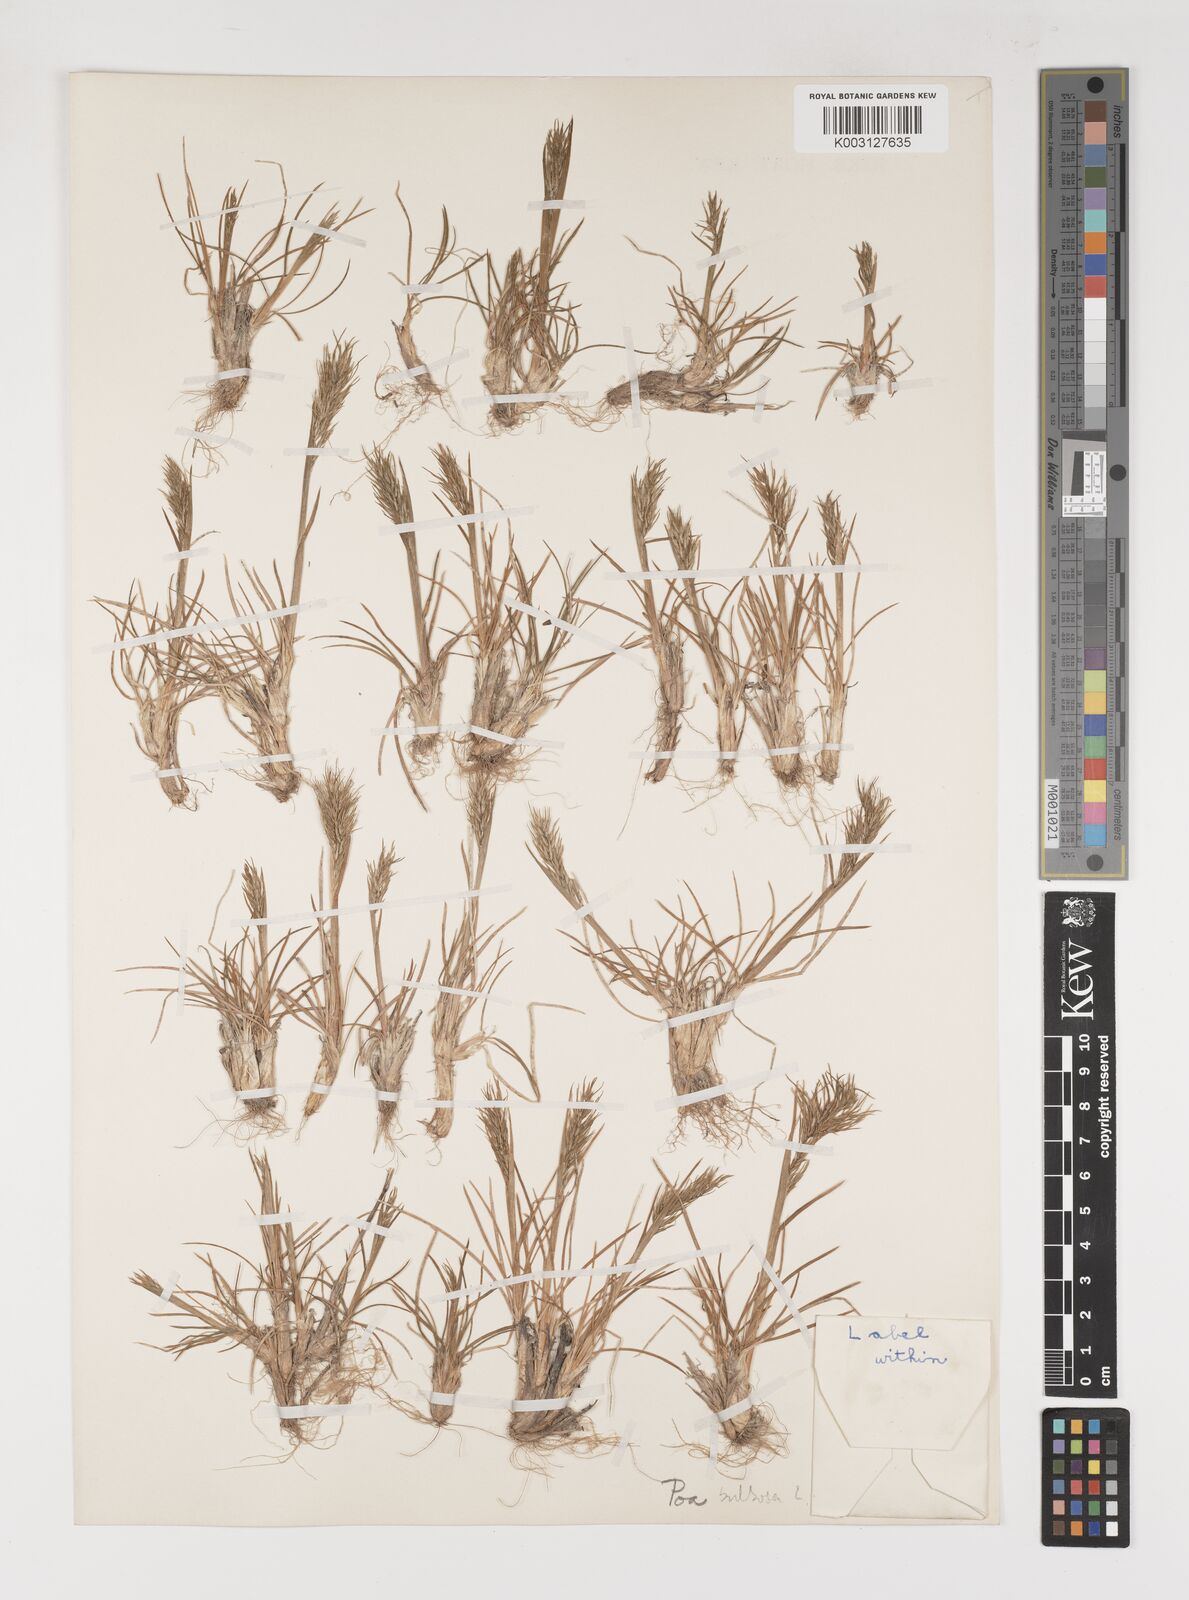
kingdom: Plantae
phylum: Tracheophyta
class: Liliopsida
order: Poales
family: Poaceae
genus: Poa
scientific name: Poa
